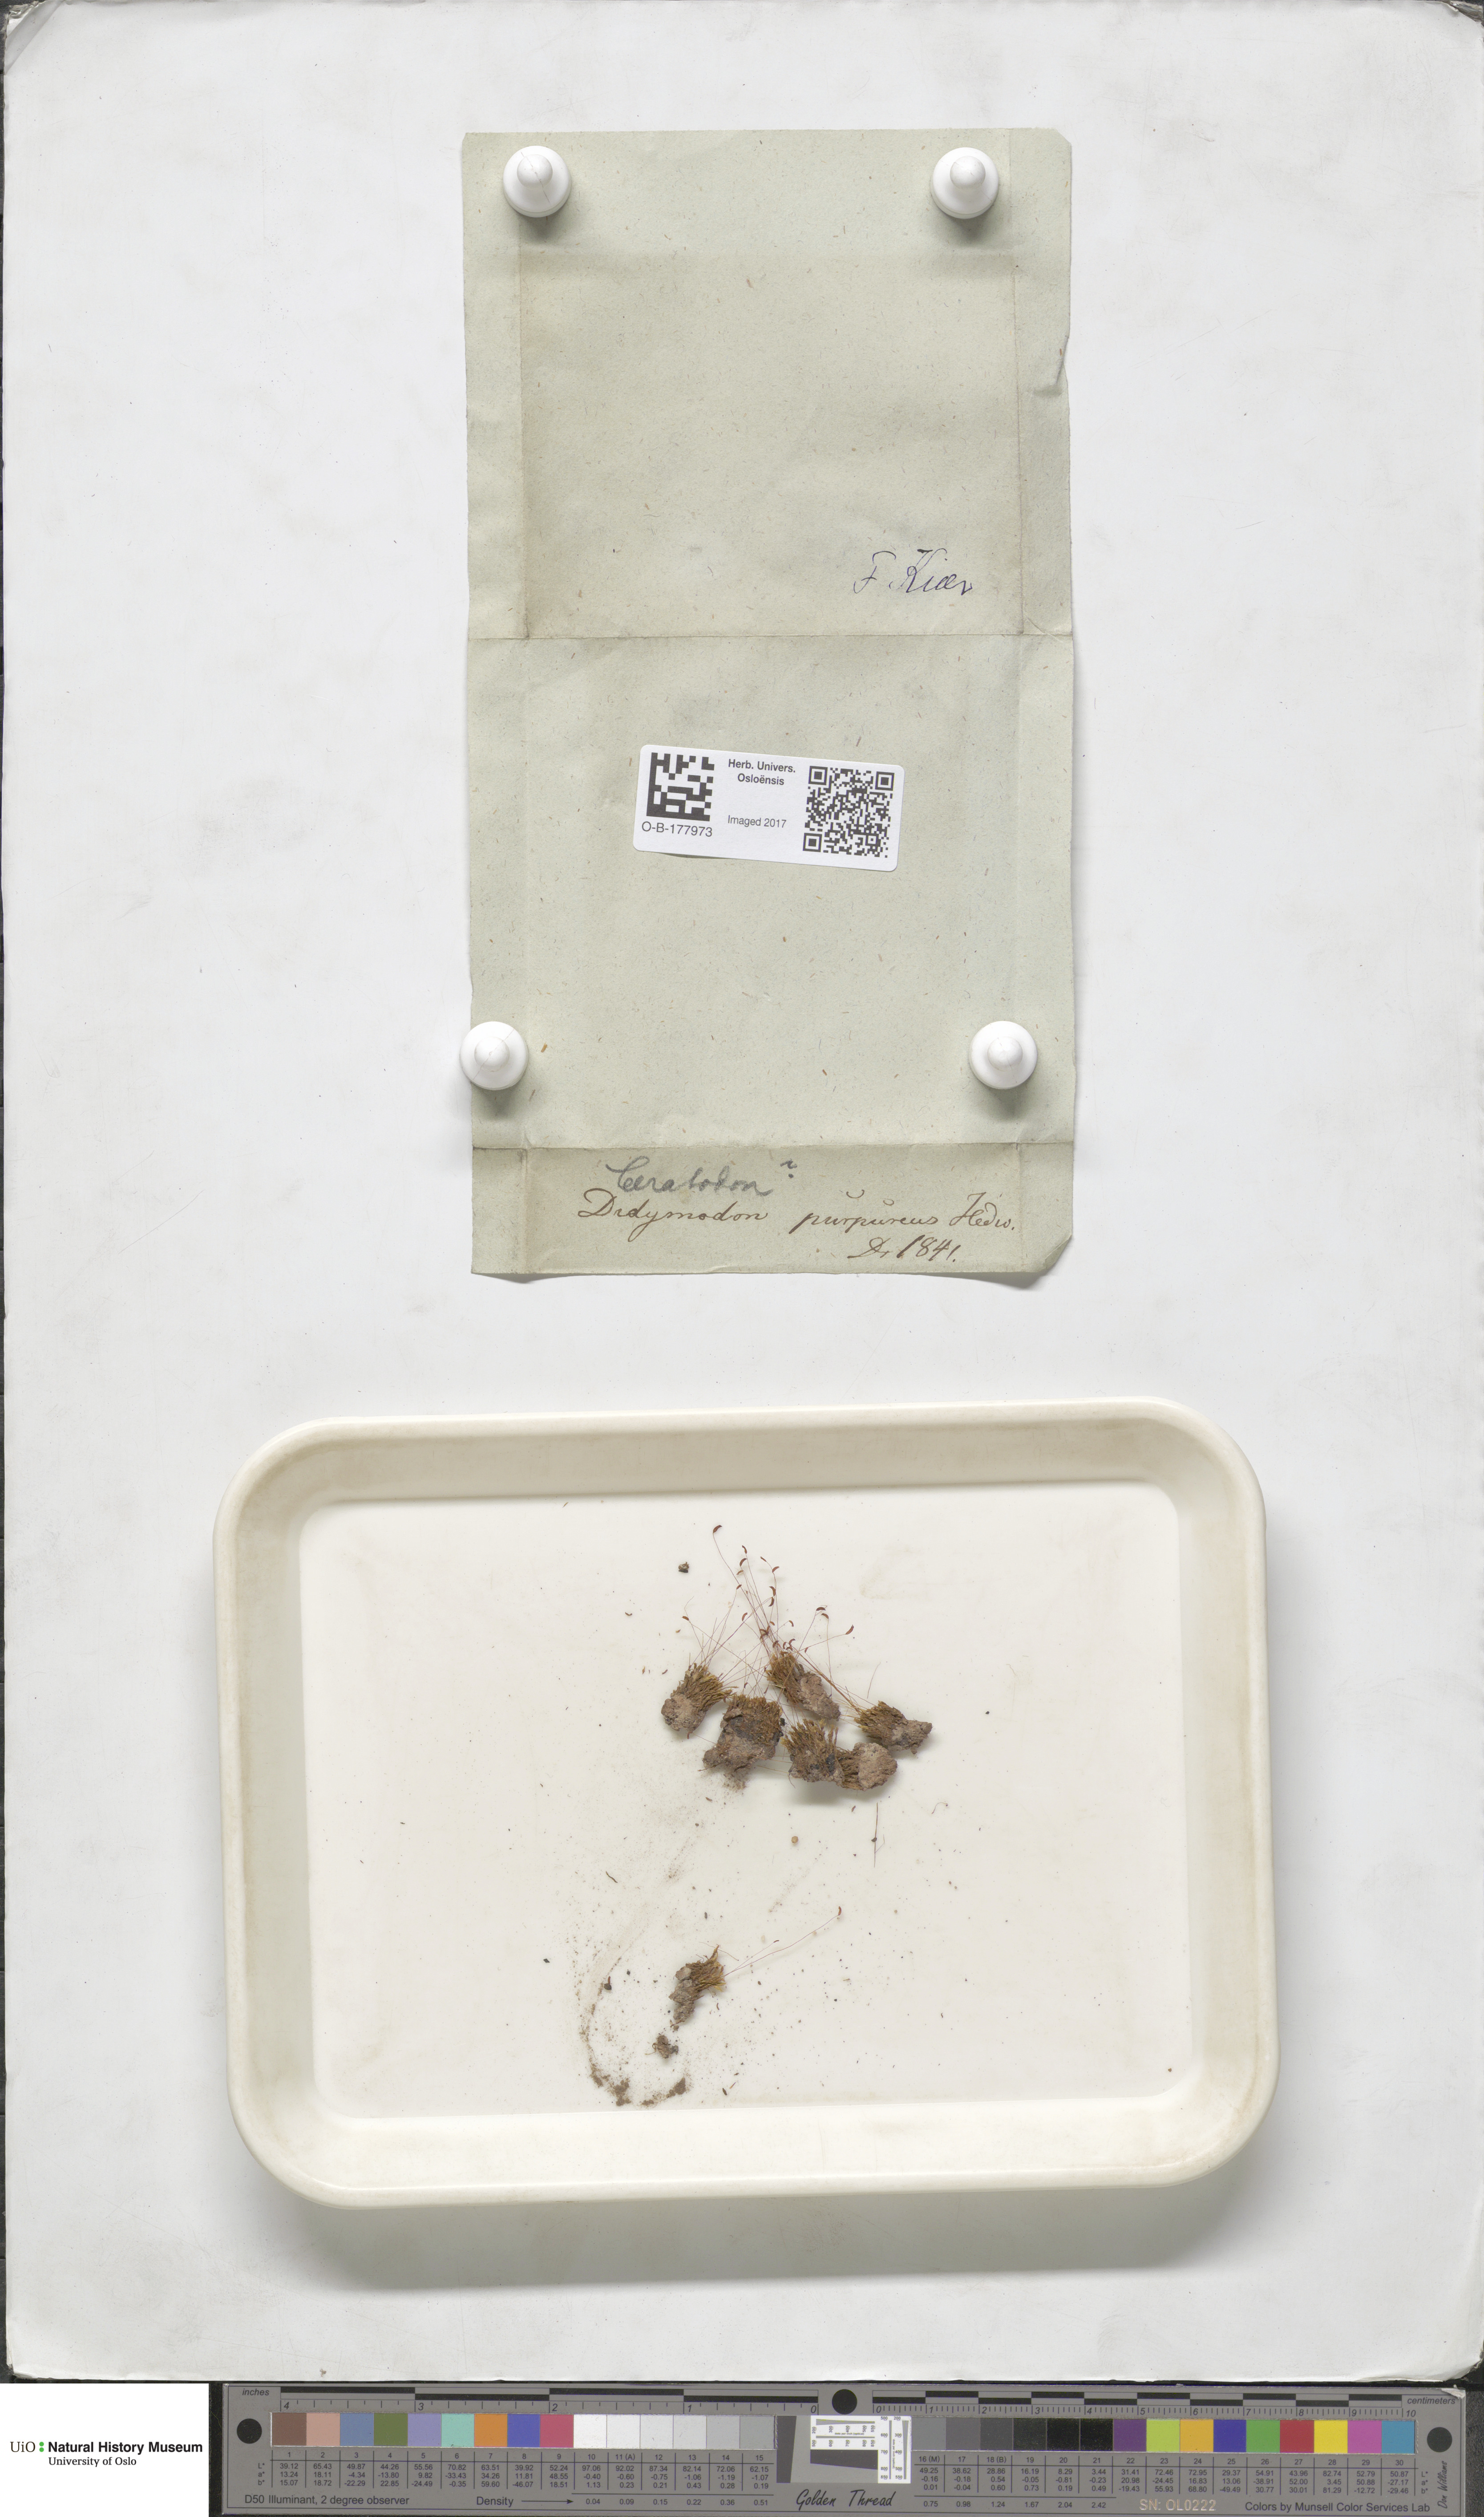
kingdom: Plantae
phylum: Bryophyta
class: Bryopsida
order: Dicranales
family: Ditrichaceae
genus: Ceratodon
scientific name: Ceratodon purpureus
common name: Redshank
